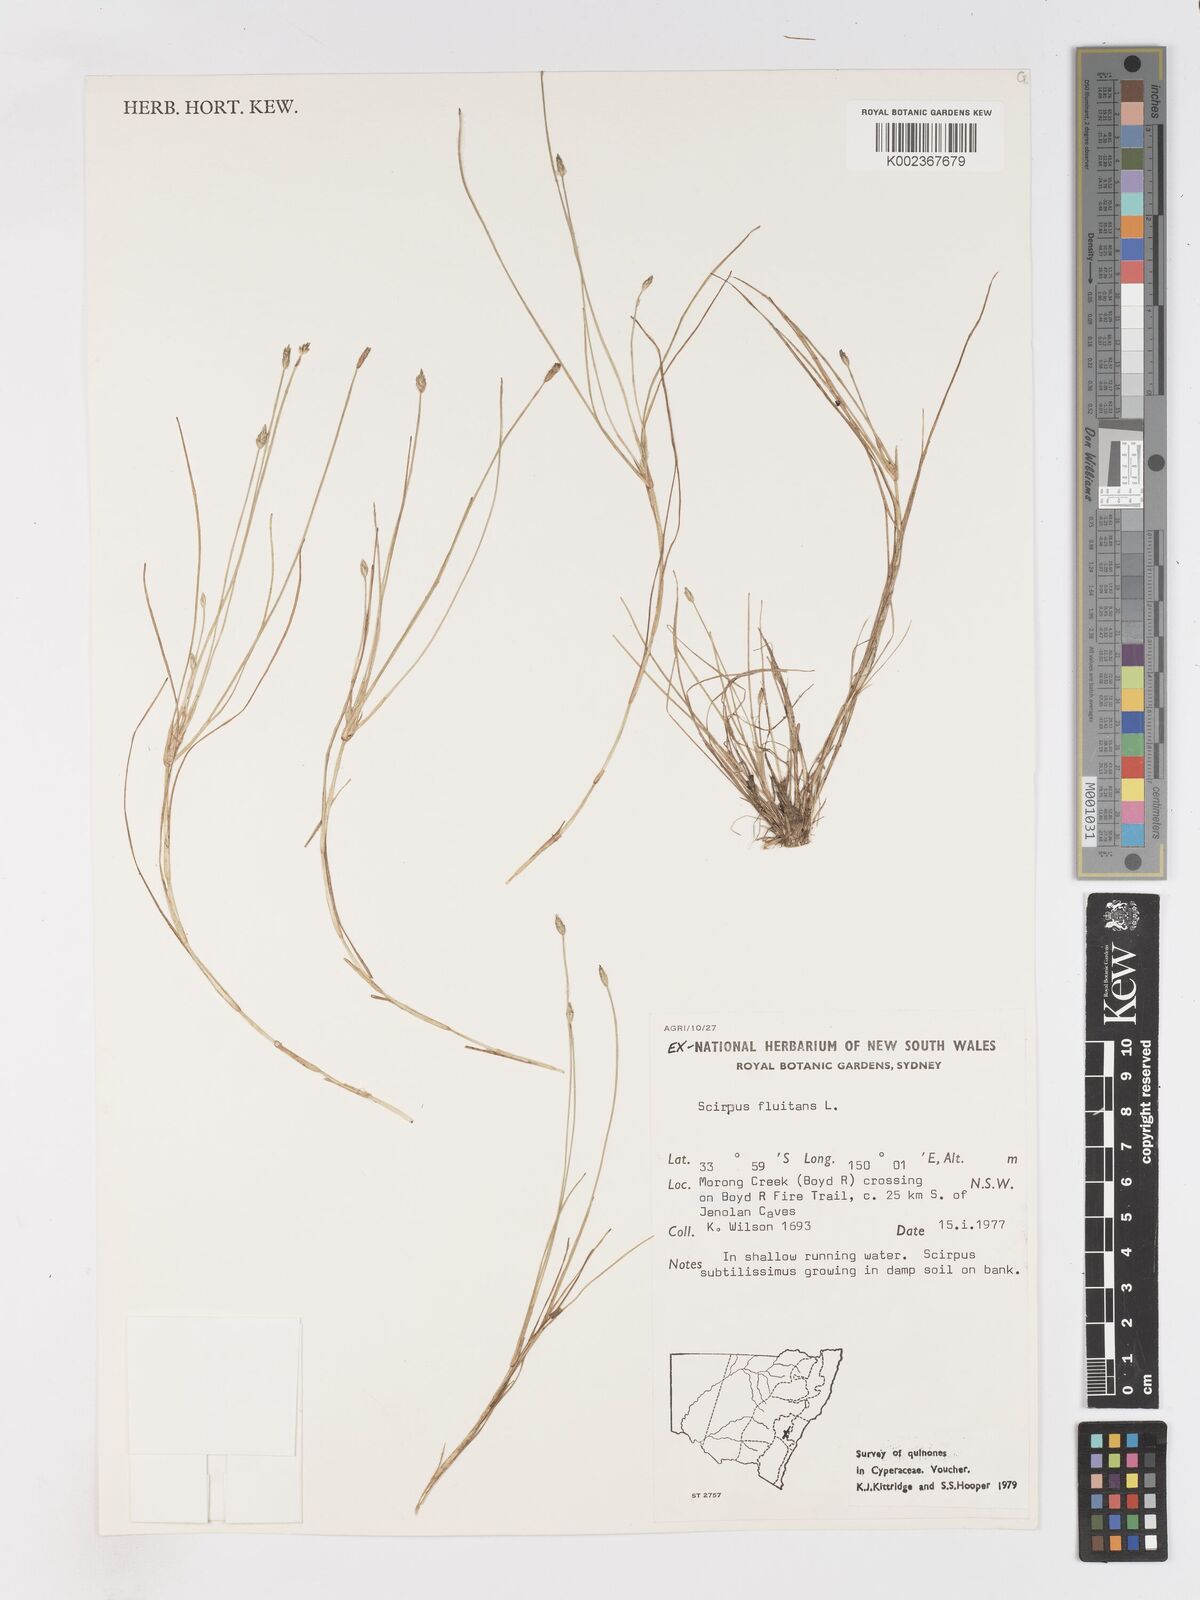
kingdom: Plantae
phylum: Tracheophyta
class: Liliopsida
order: Poales
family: Cyperaceae
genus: Isolepis
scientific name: Isolepis fluitans
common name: Floating club-rush
